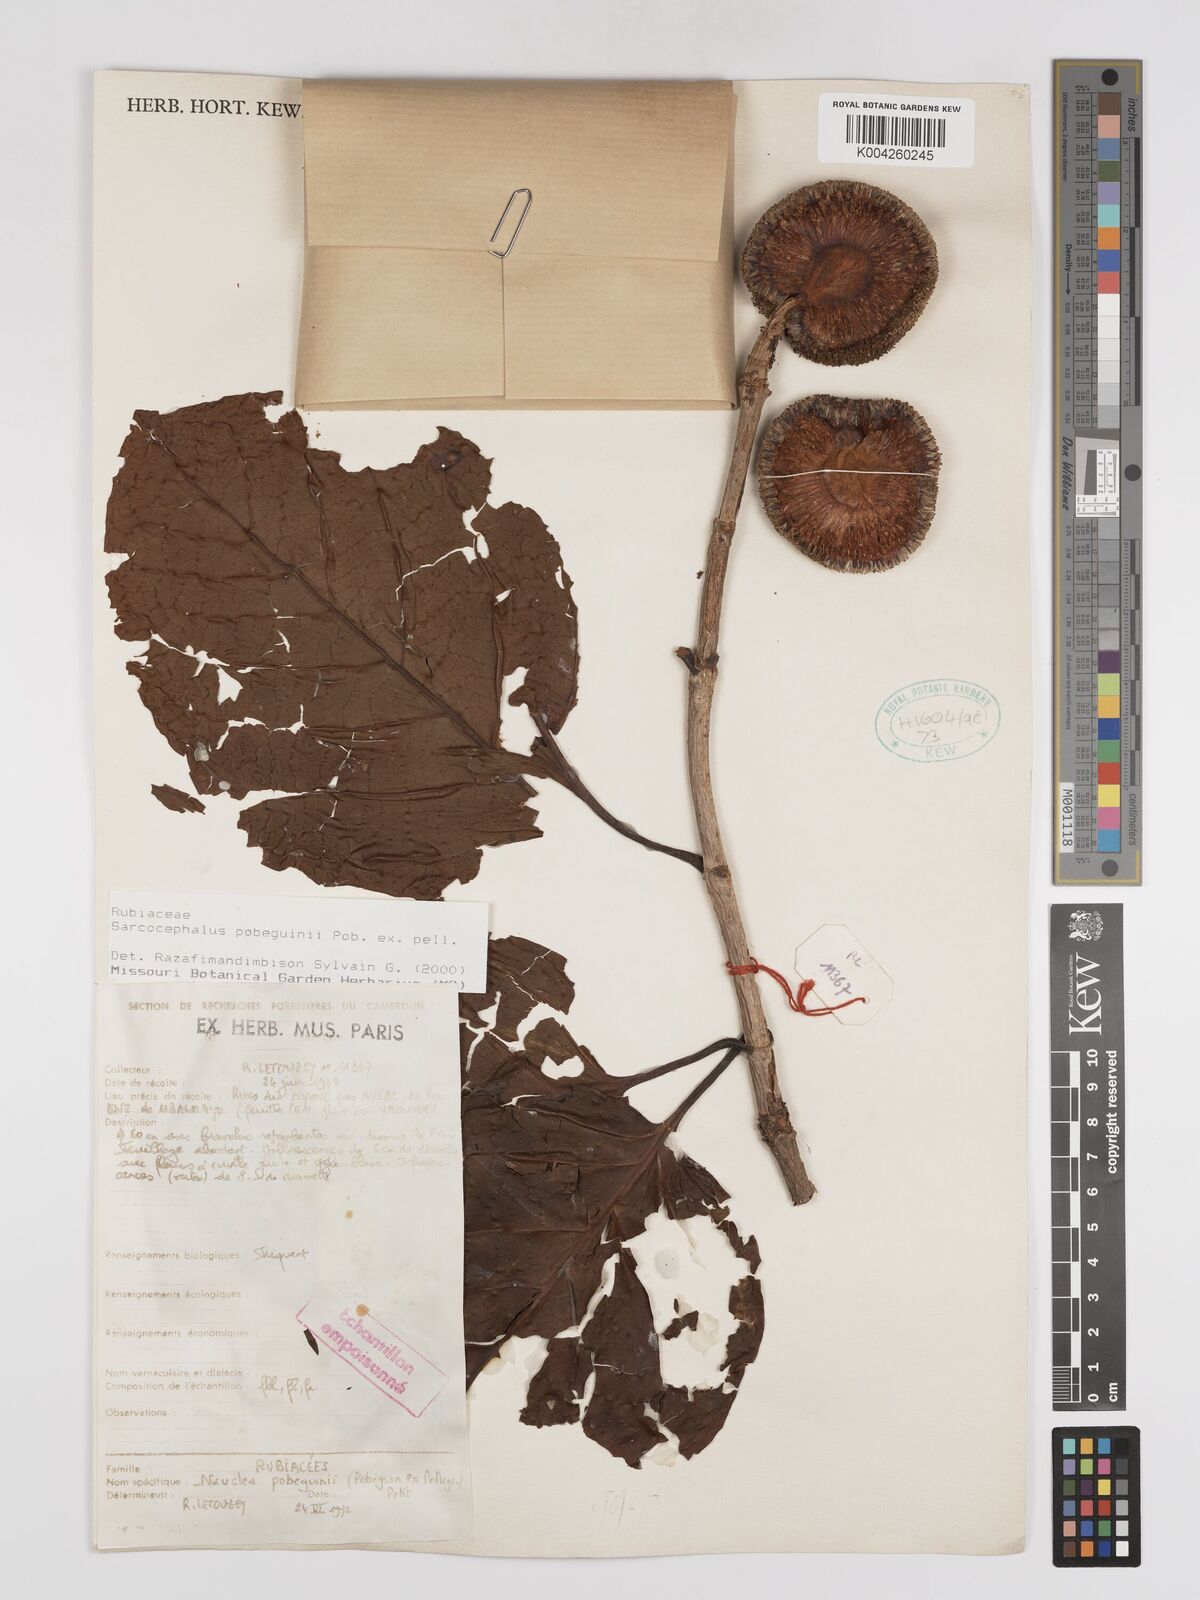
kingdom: Plantae
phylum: Tracheophyta
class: Magnoliopsida
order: Gentianales
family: Rubiaceae
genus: Nauclea
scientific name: Nauclea pobeguinii
